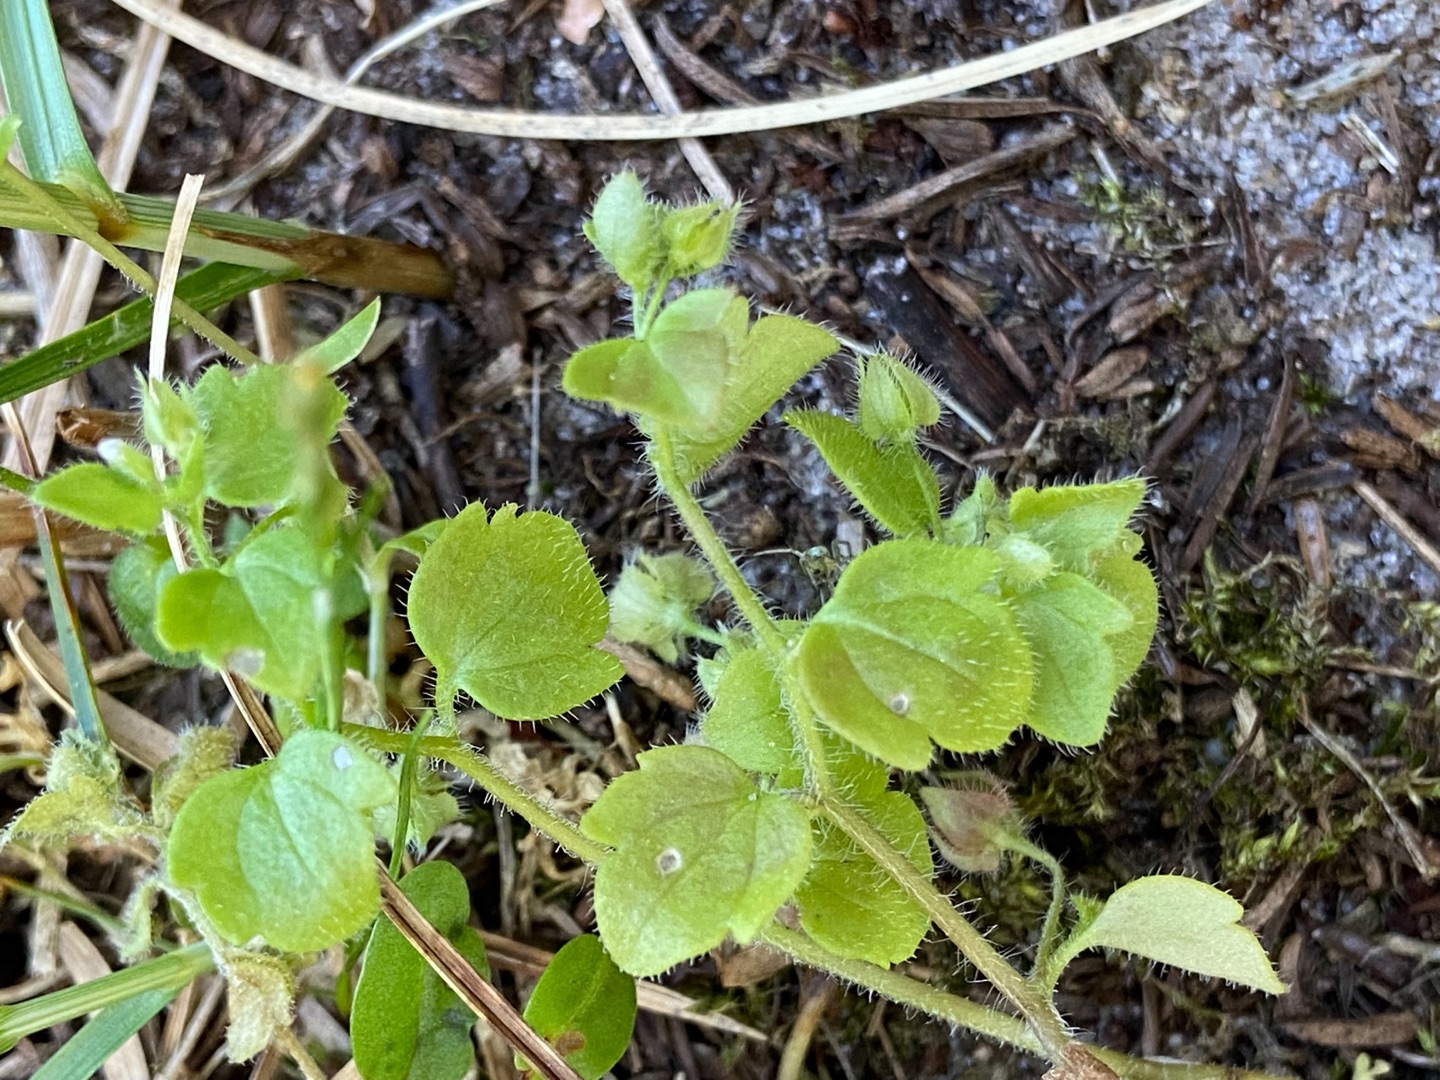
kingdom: Plantae
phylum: Tracheophyta
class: Magnoliopsida
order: Lamiales
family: Plantaginaceae
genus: Veronica
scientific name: Veronica sublobata
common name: Krat-ærenpris
